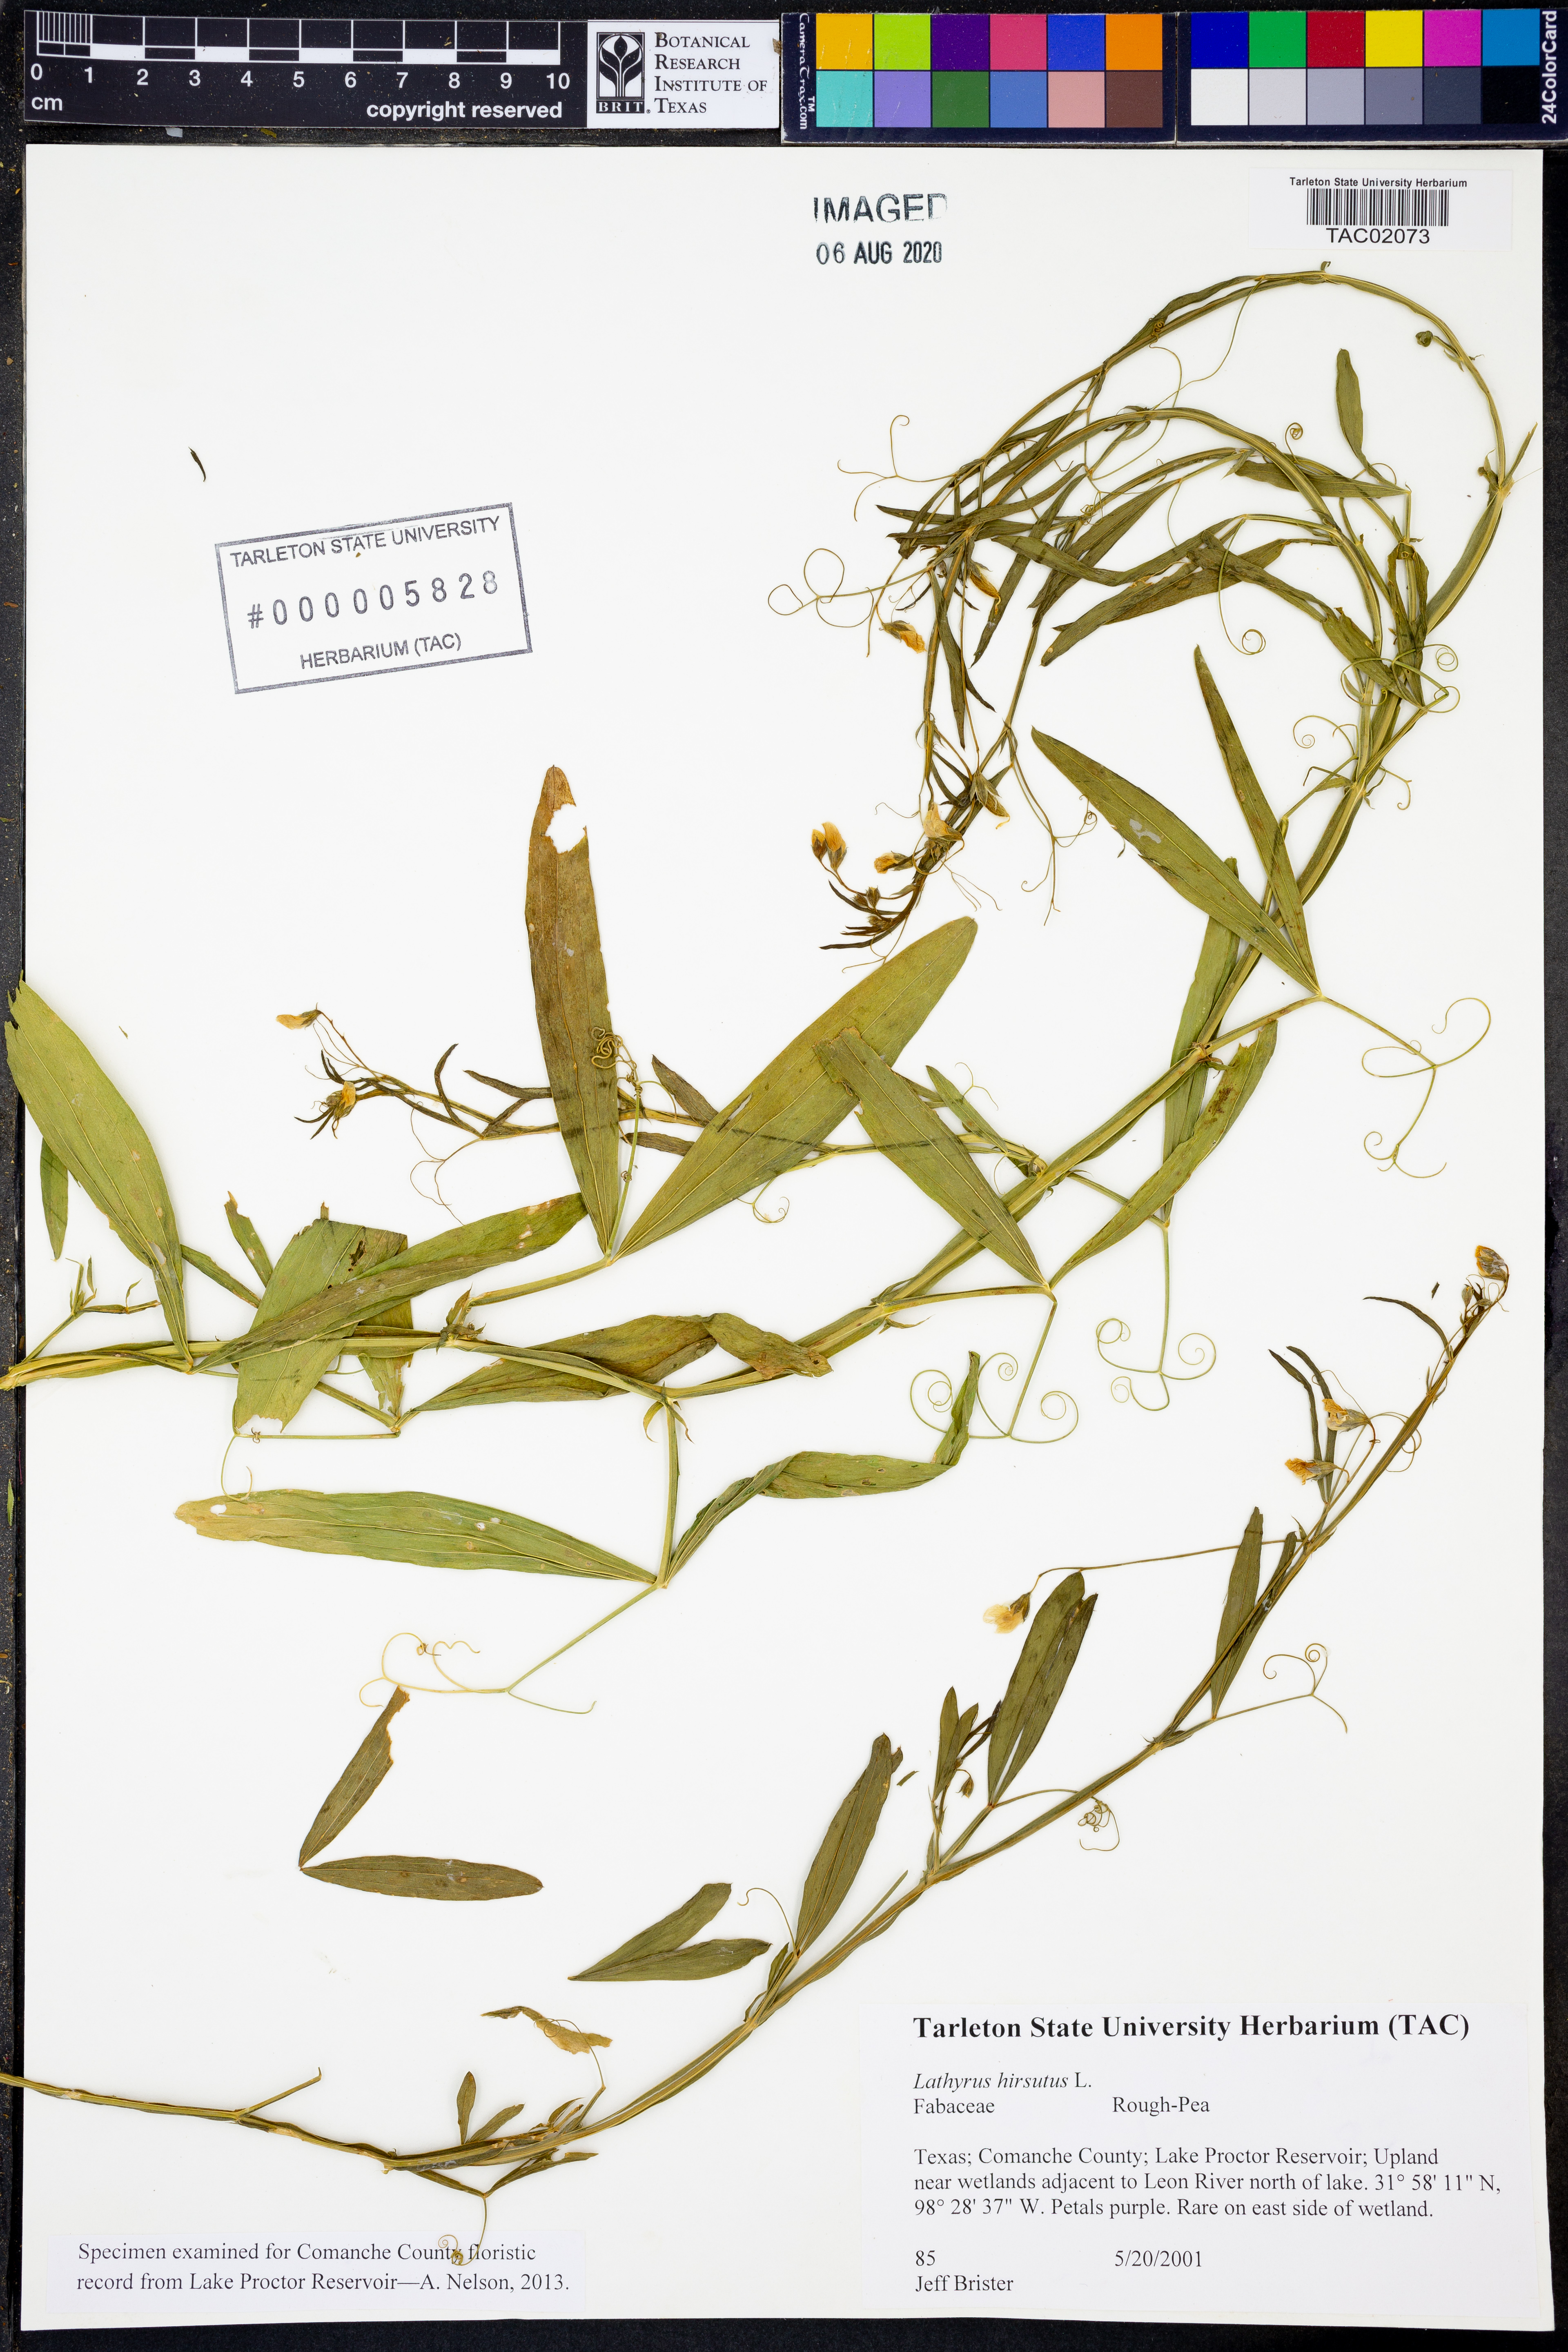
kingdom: Plantae
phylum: Tracheophyta
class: Magnoliopsida
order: Fabales
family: Fabaceae
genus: Lathyrus
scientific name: Lathyrus hirsutus
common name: Hairy vetchling
